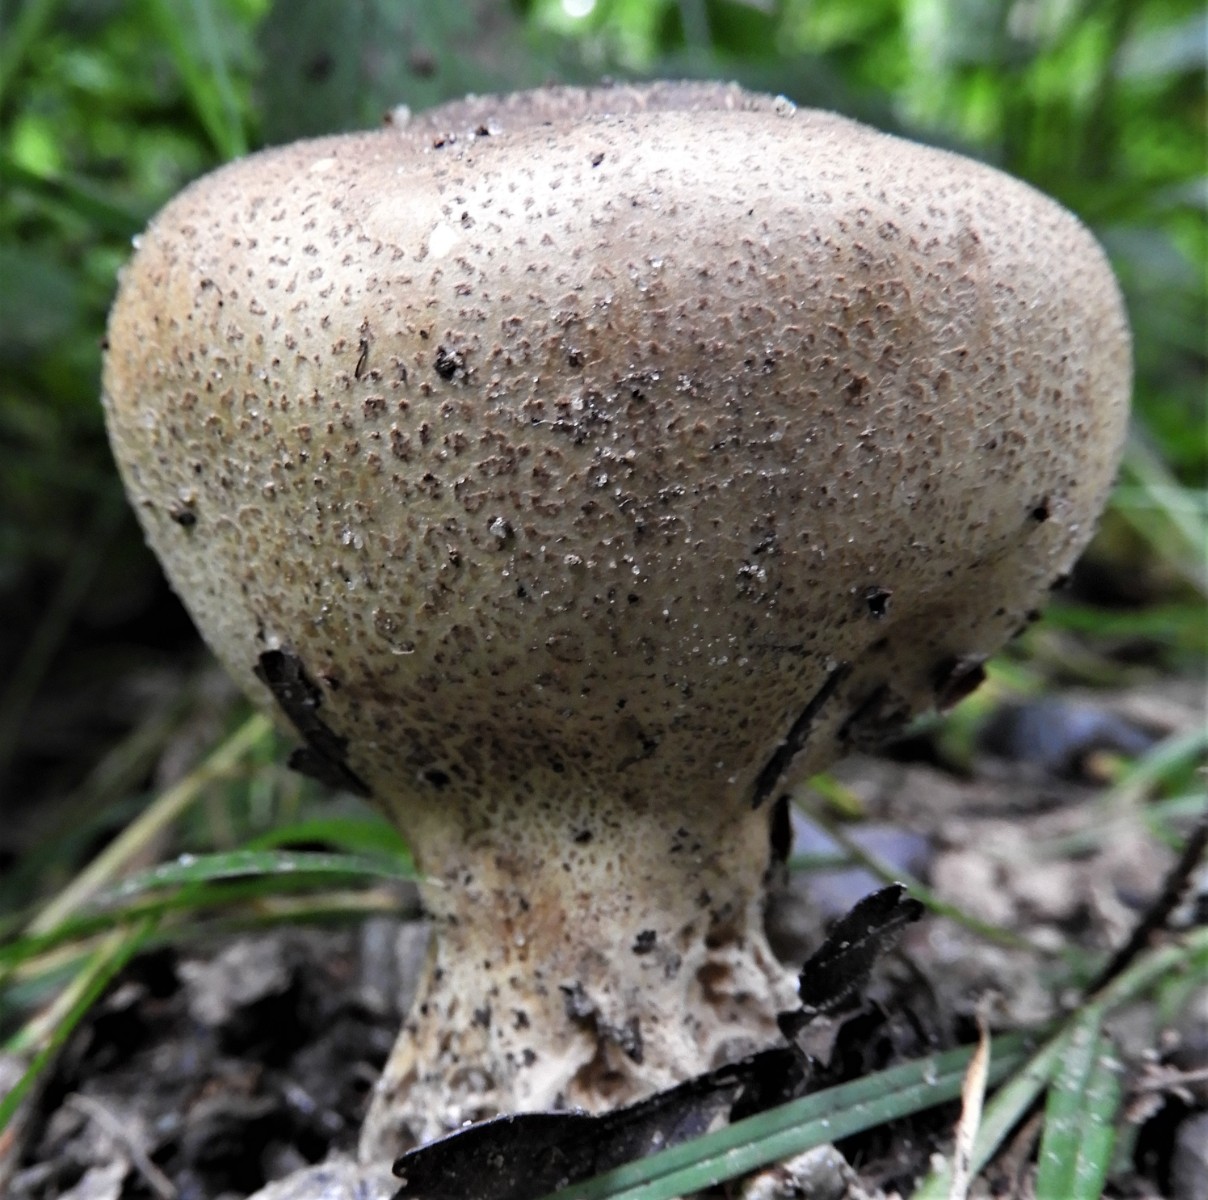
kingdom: Fungi
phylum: Basidiomycota
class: Agaricomycetes
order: Boletales
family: Sclerodermataceae
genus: Scleroderma
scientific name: Scleroderma verrucosum
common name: stilket bruskbold
